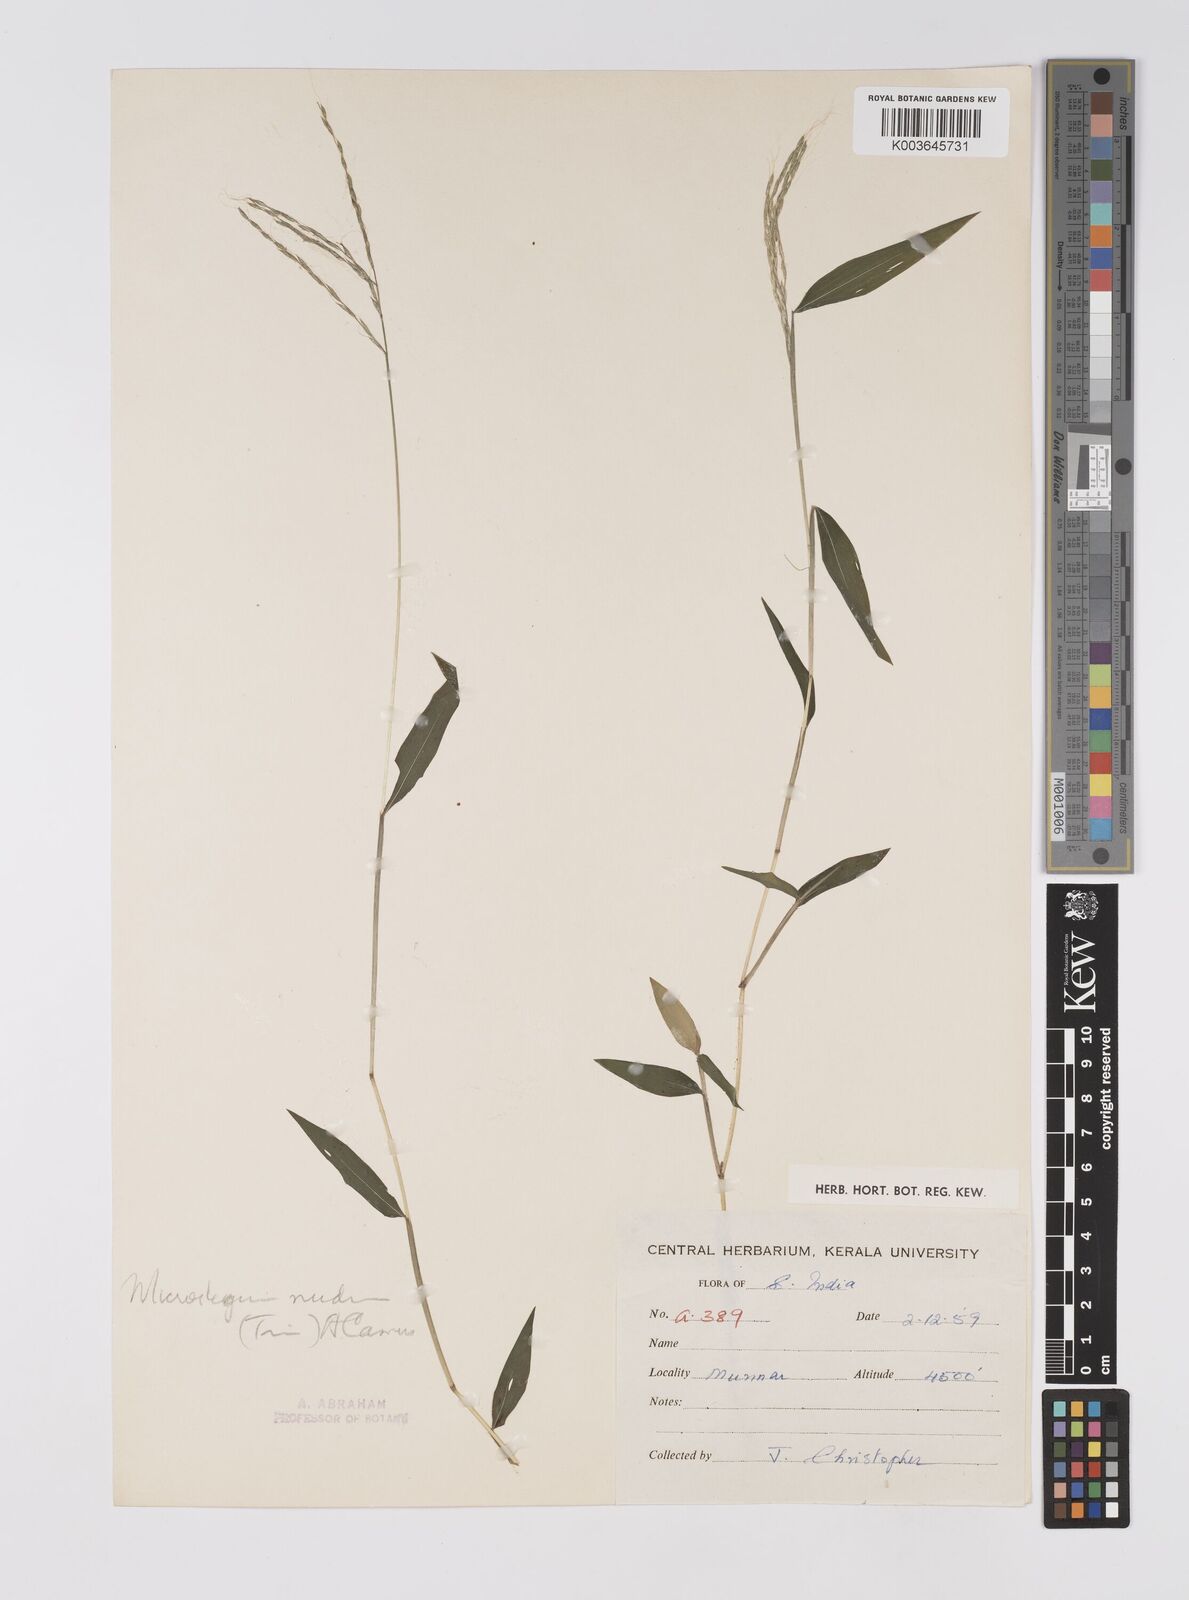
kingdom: Plantae
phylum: Tracheophyta
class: Liliopsida
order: Poales
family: Poaceae
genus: Microstegium
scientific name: Microstegium nudum
